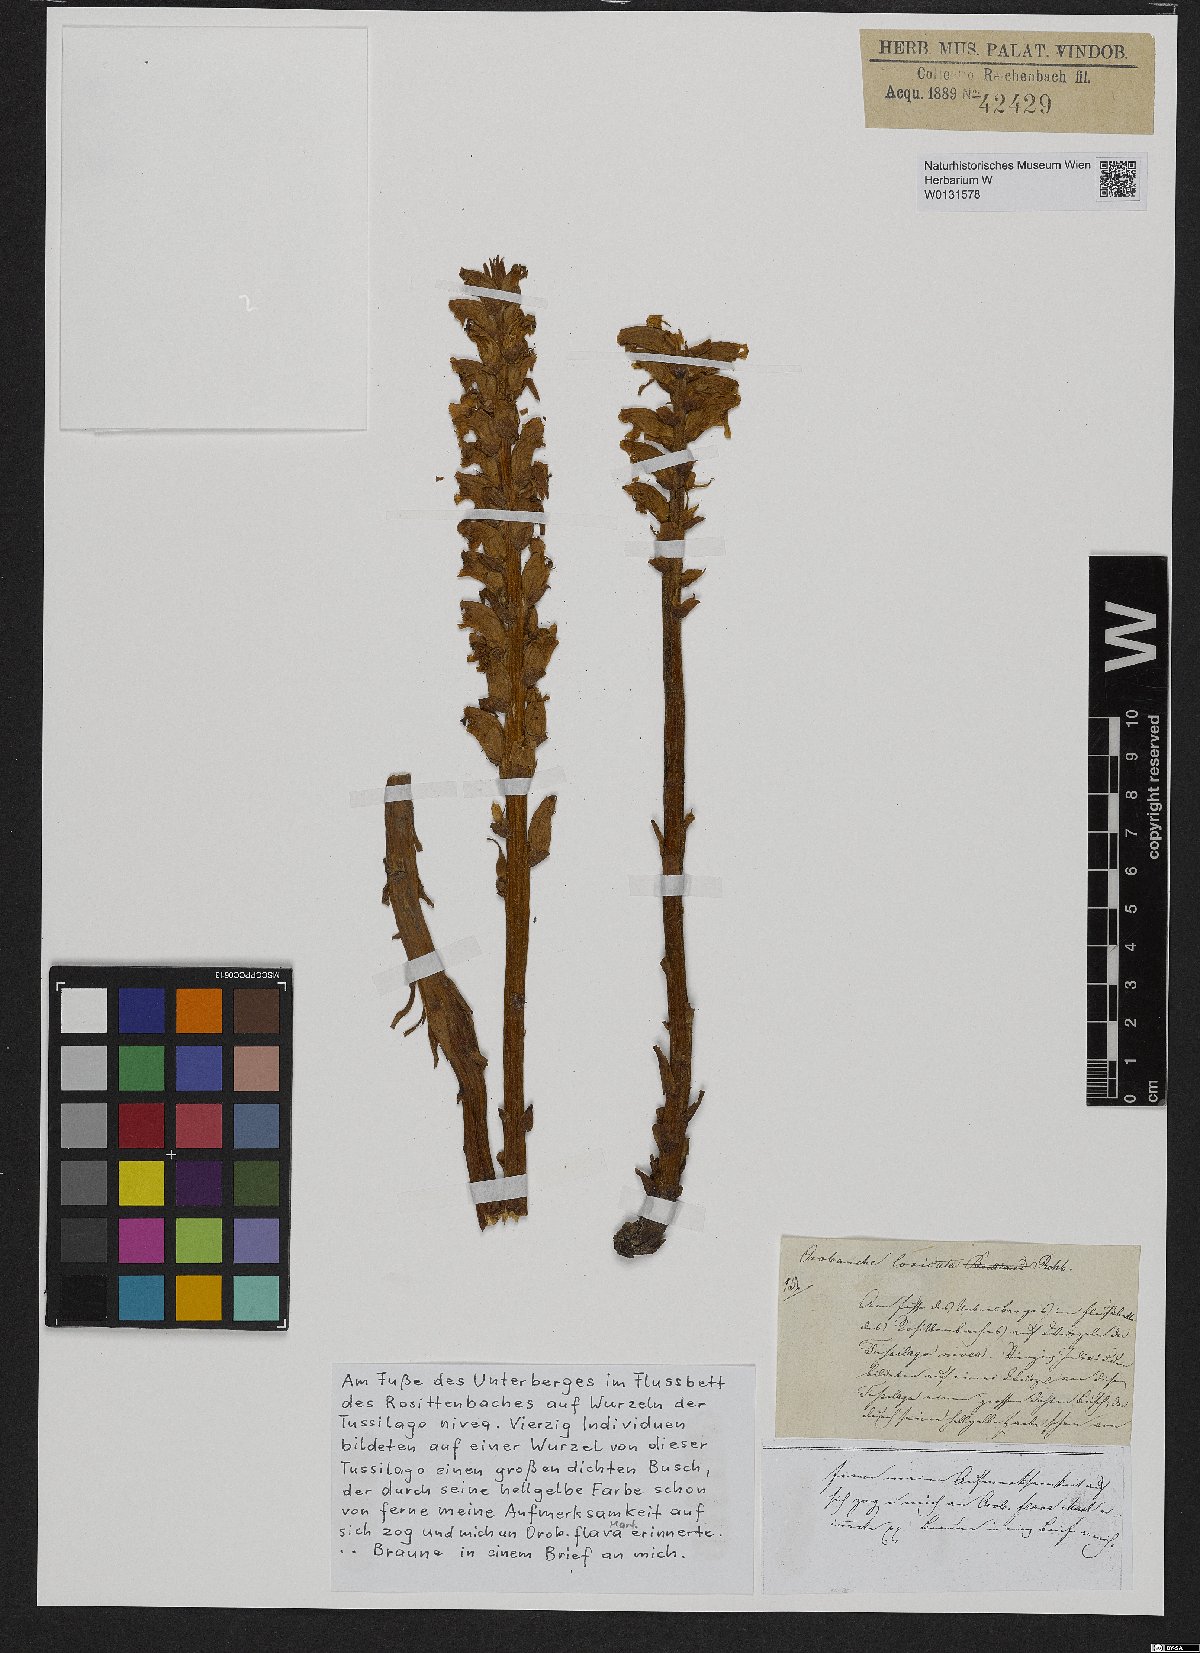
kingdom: Plantae
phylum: Tracheophyta
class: Magnoliopsida
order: Lamiales
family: Orobanchaceae
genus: Orobanche
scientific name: Orobanche artemisiae-campestris
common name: Oxtongue broomrape
